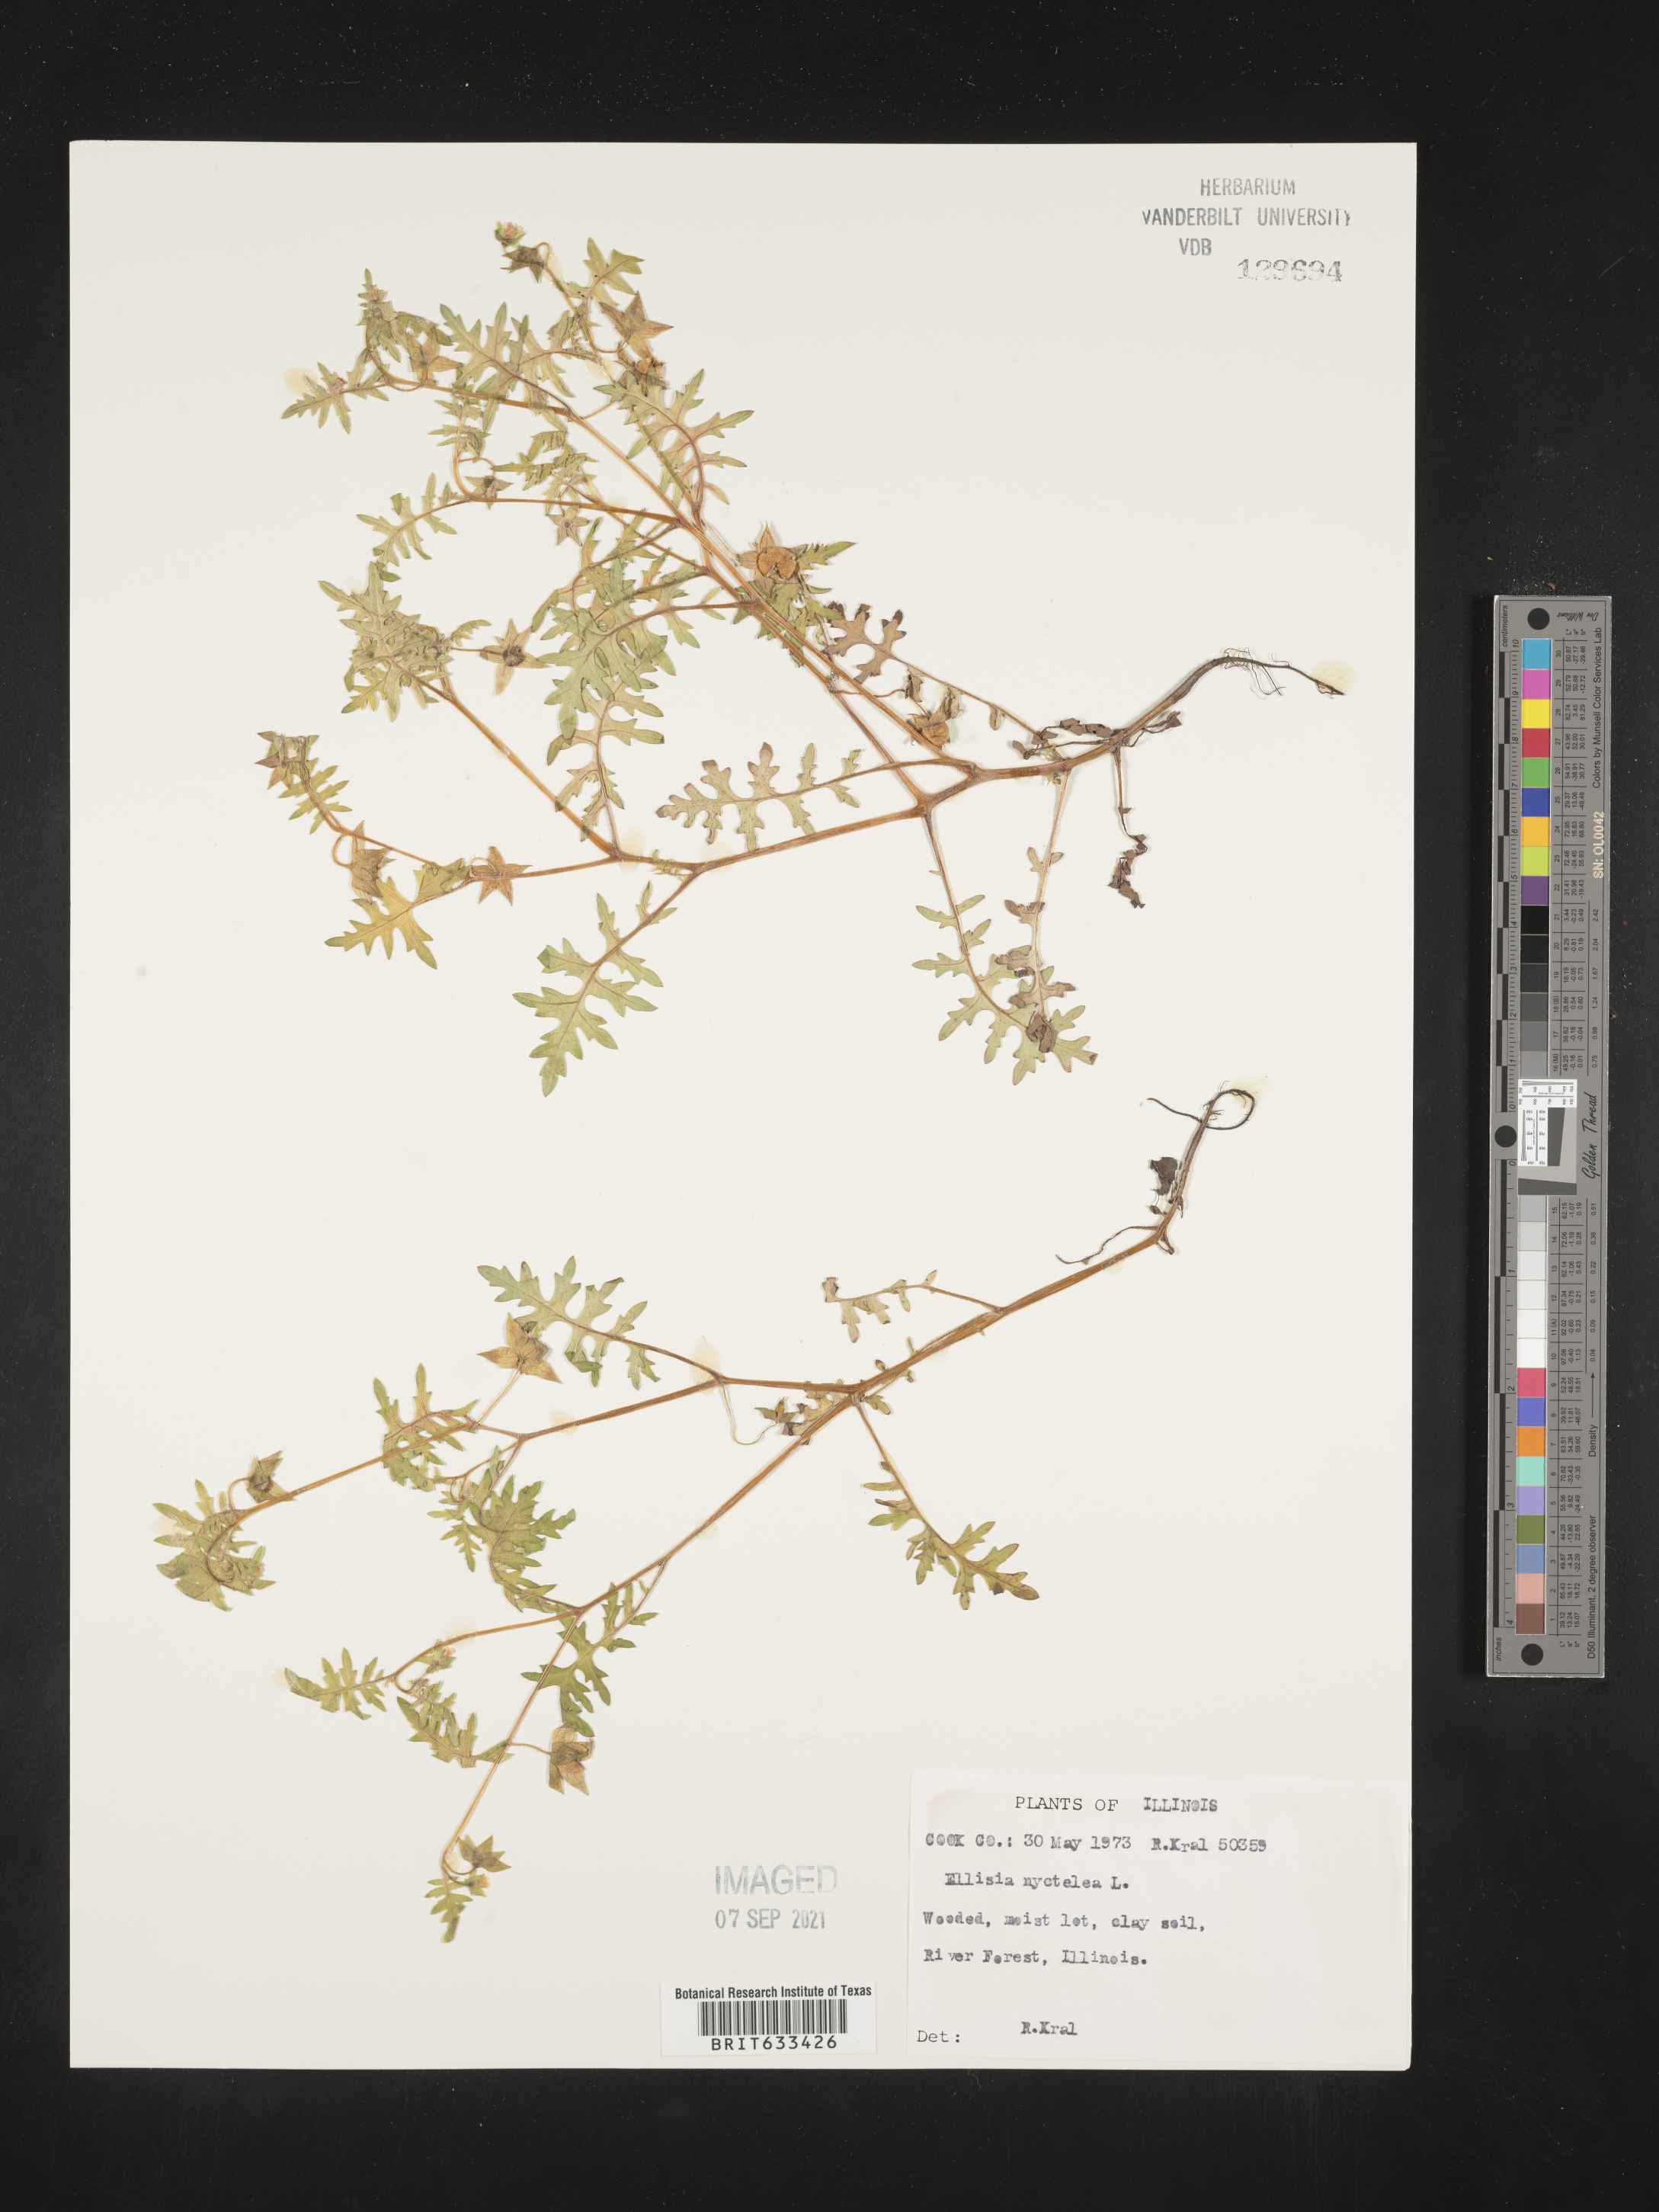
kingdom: Plantae
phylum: Tracheophyta
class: Magnoliopsida
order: Boraginales
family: Hydrophyllaceae
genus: Ellisia
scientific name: Ellisia nyctelea
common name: Aunt lucy
